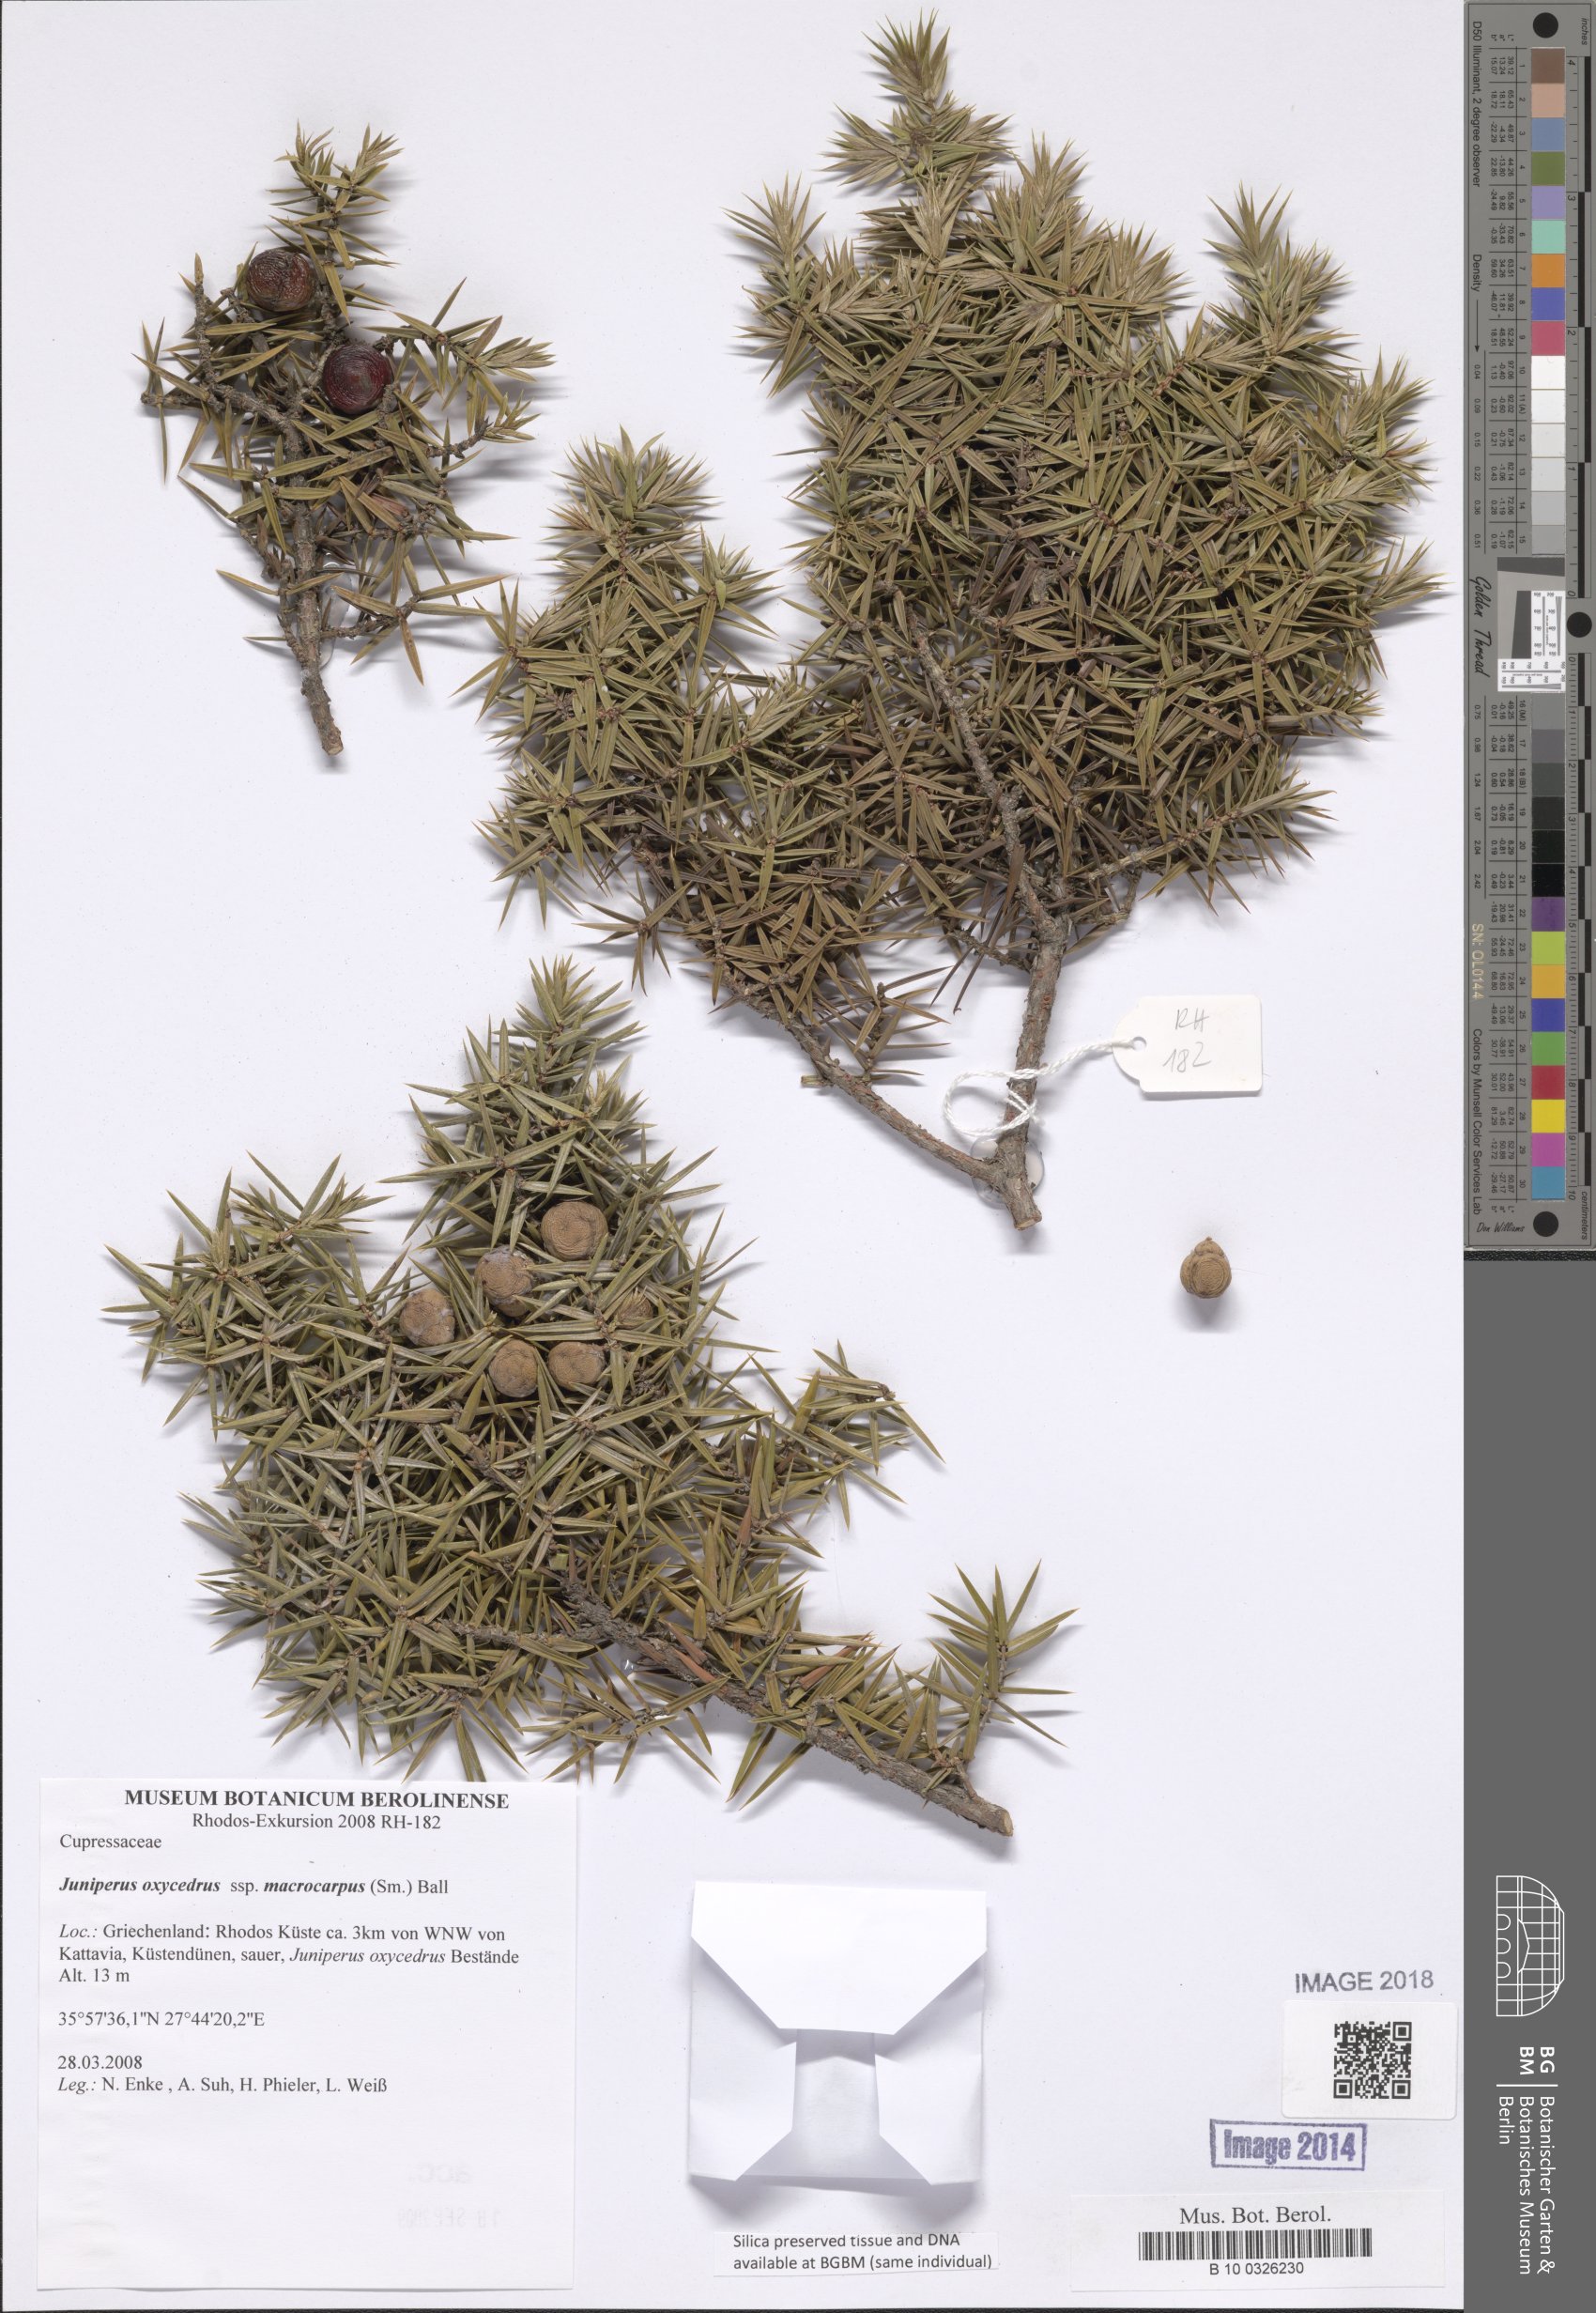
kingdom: Plantae
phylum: Tracheophyta
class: Pinopsida
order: Pinales
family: Cupressaceae
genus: Juniperus
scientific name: Juniperus oxycedrus
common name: Prickly juniper
